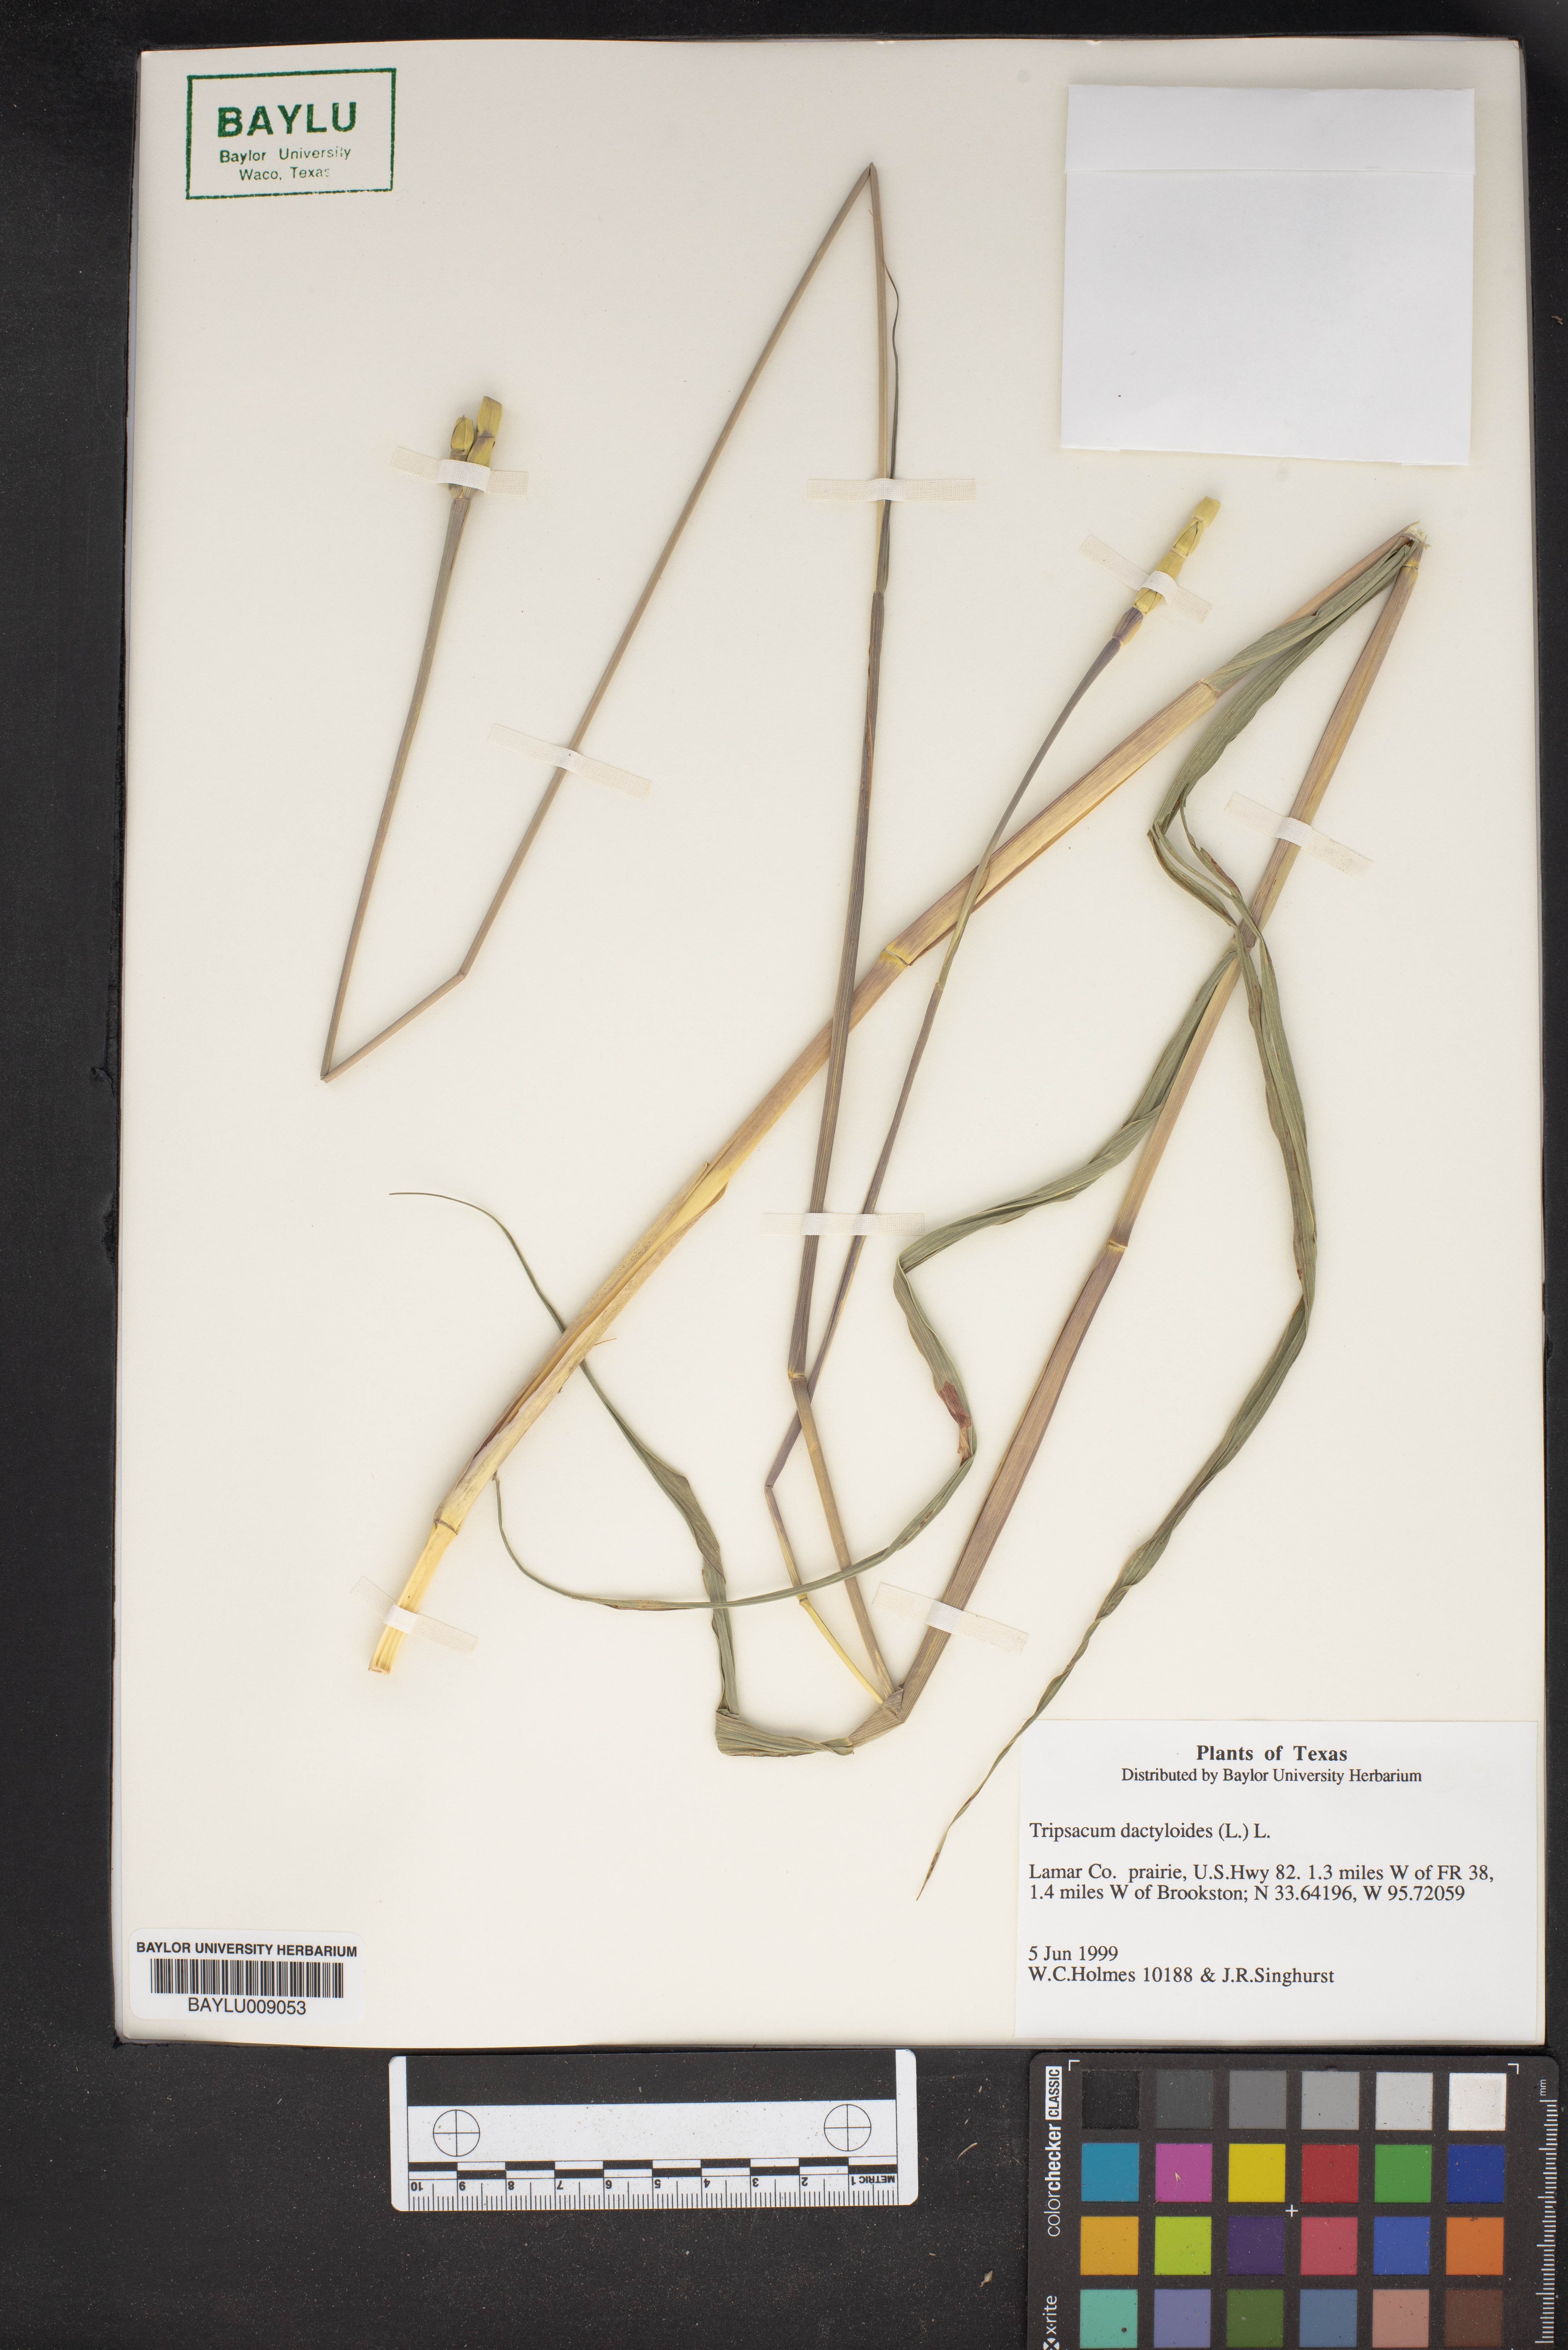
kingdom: Plantae
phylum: Tracheophyta
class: Liliopsida
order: Poales
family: Poaceae
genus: Tripsacum
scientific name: Tripsacum dactyloides
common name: Buffalo-grass
